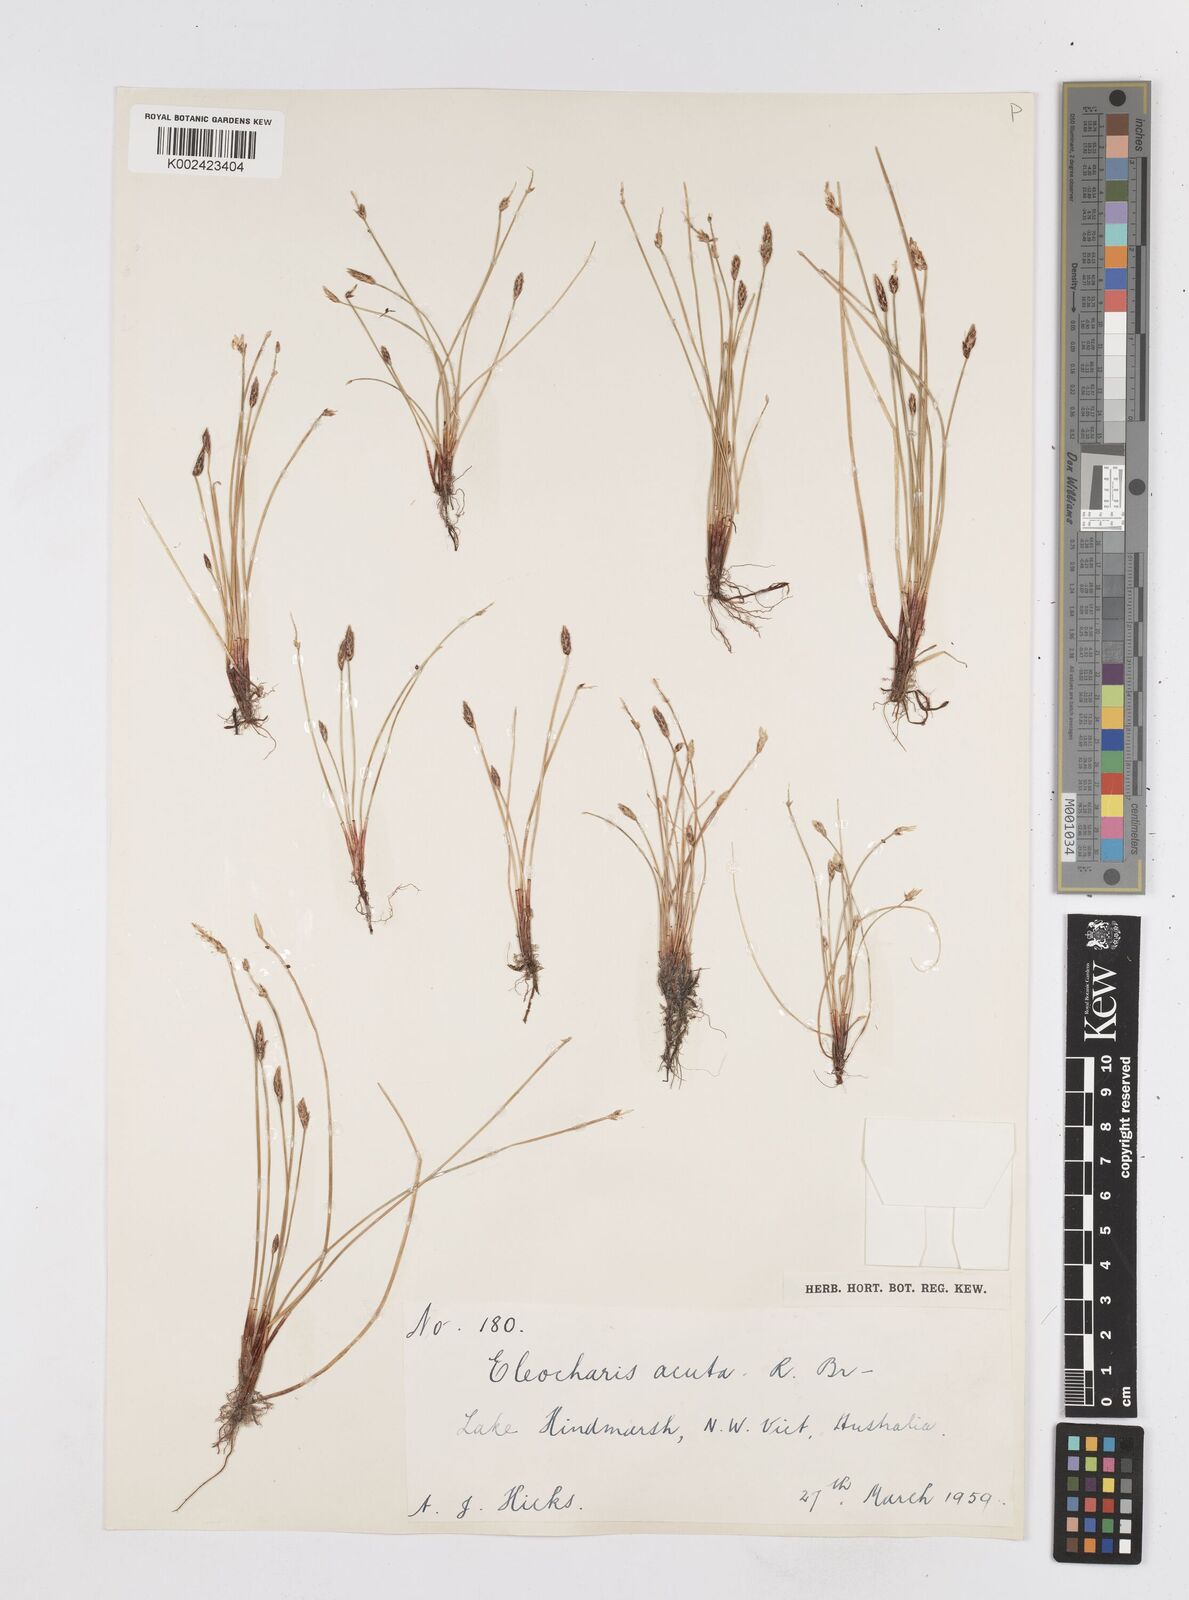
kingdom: Plantae
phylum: Tracheophyta
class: Liliopsida
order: Poales
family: Cyperaceae
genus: Eleocharis
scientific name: Eleocharis acuta
